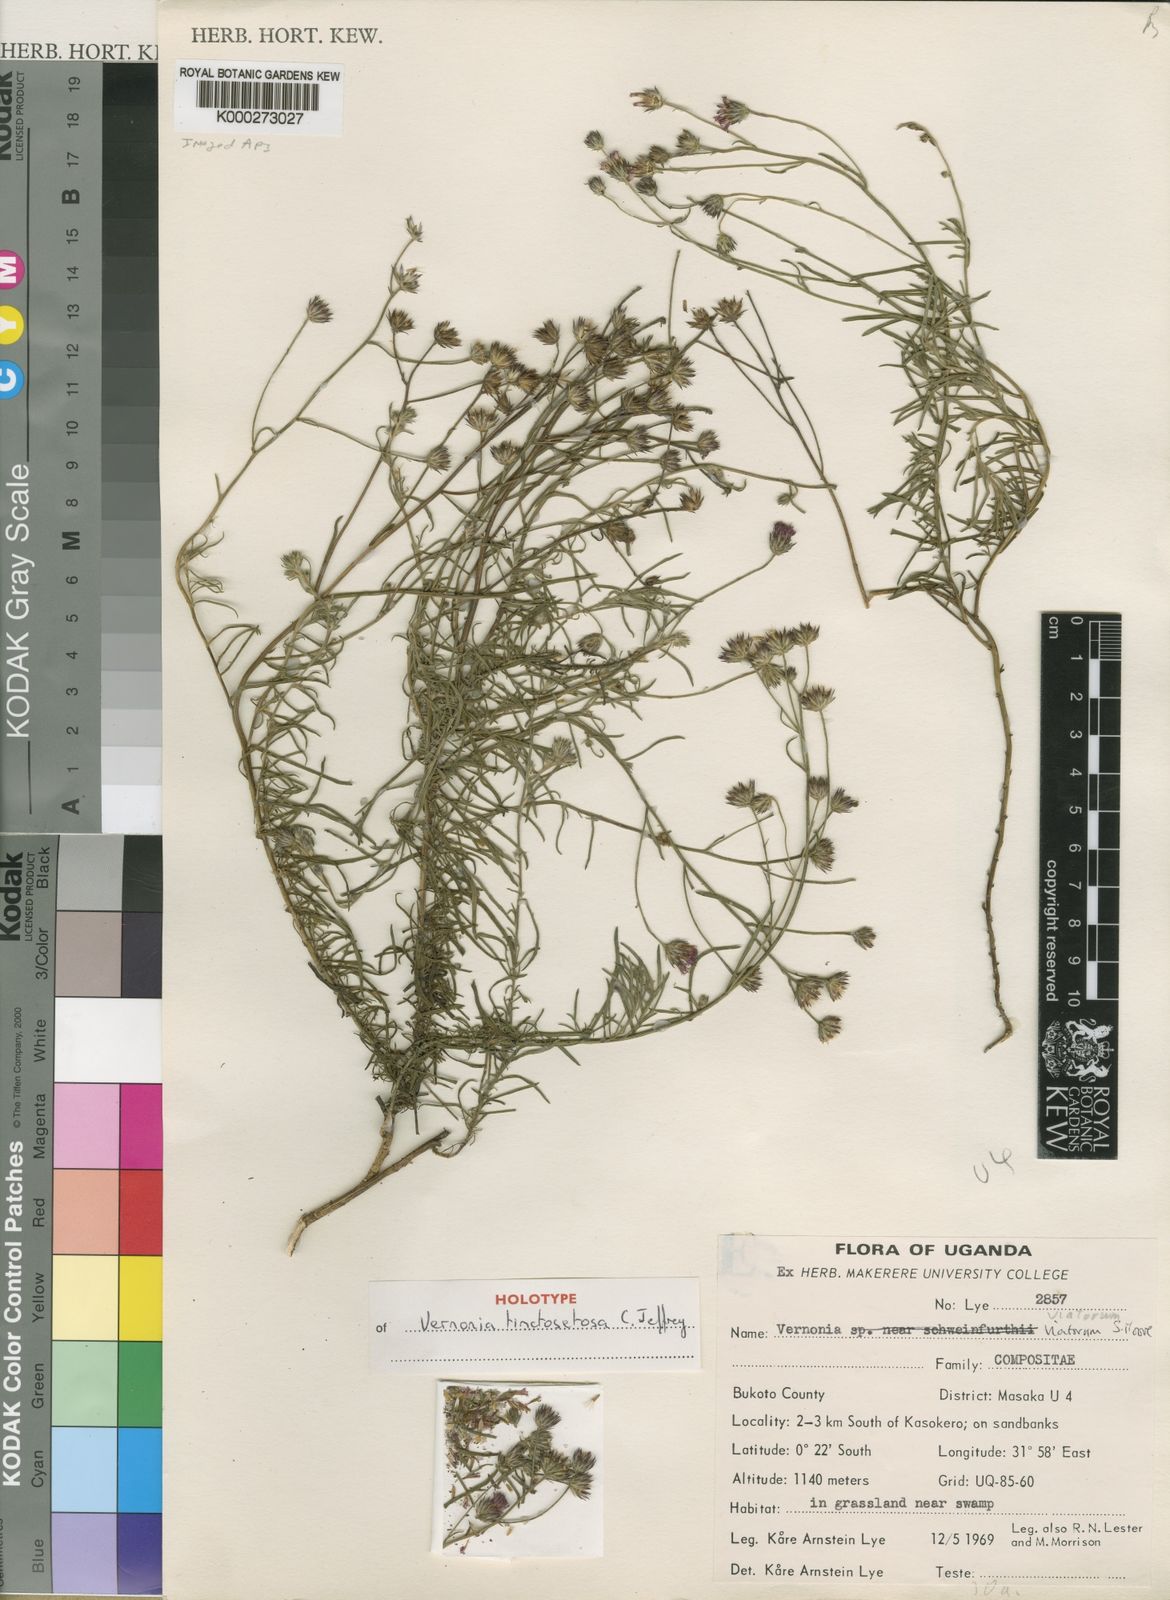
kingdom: Plantae
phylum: Tracheophyta
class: Magnoliopsida
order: Asterales
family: Asteraceae
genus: Vernonia
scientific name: Vernonia tinctosetosa
